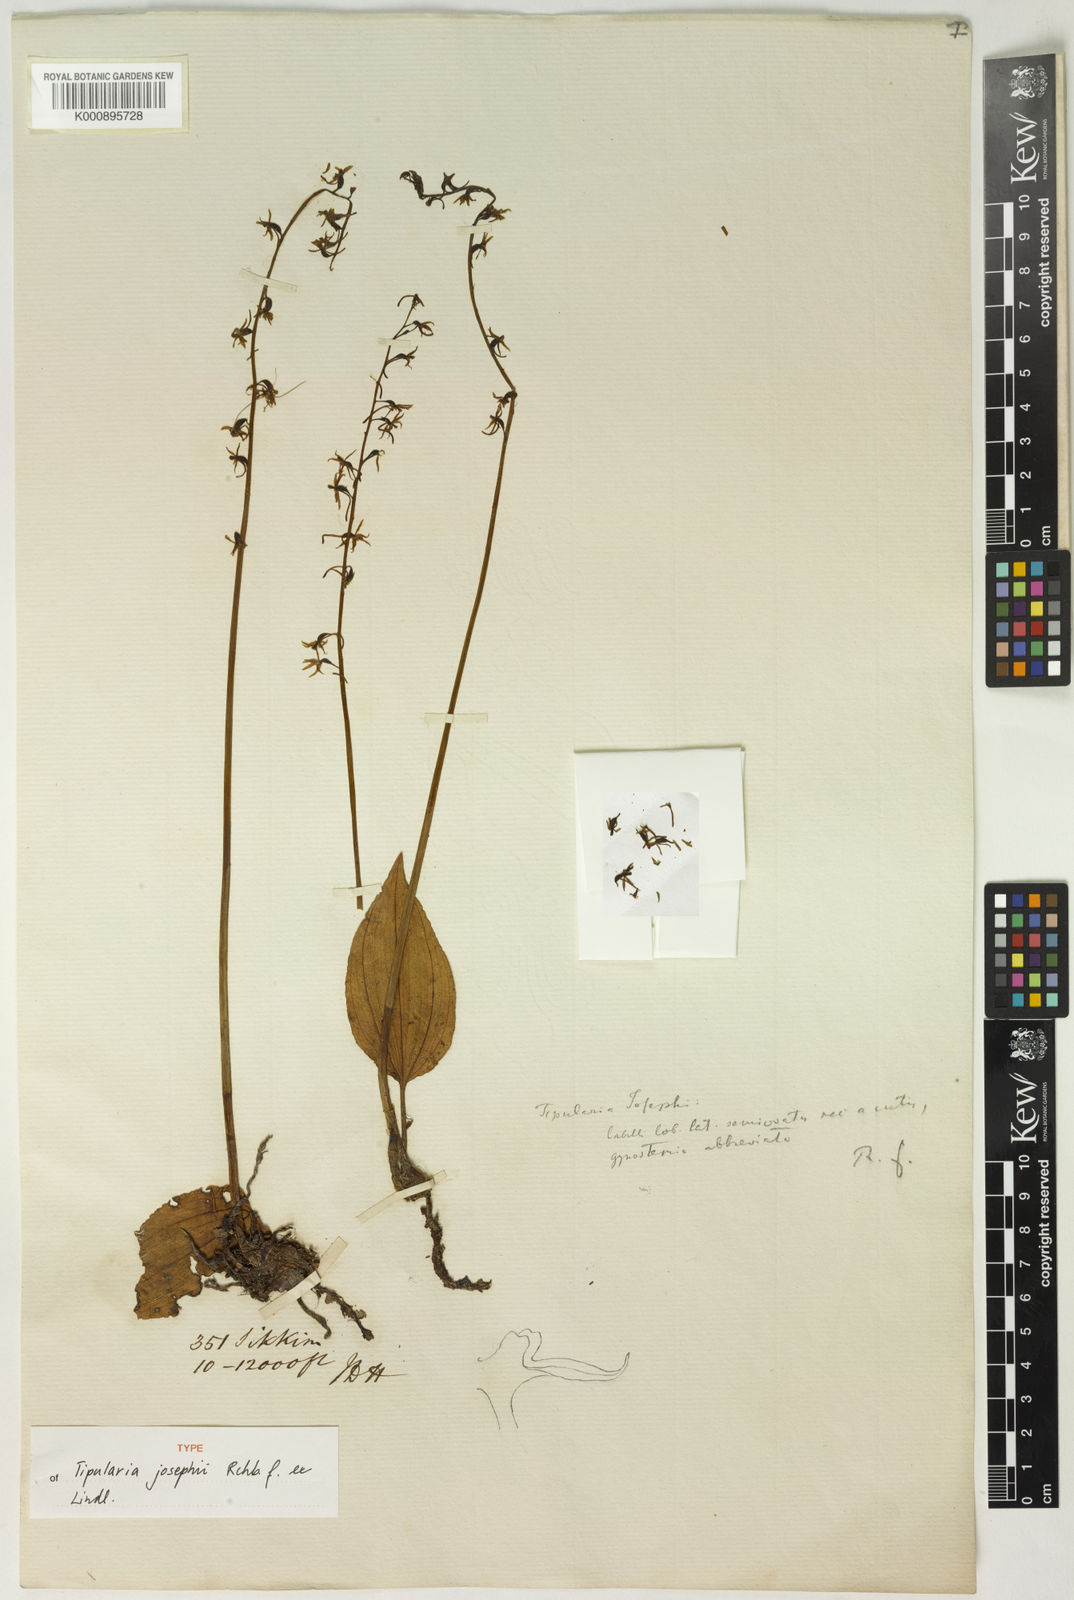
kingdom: Plantae
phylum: Tracheophyta
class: Liliopsida
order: Asparagales
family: Orchidaceae
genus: Tipularia
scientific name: Tipularia josephi
